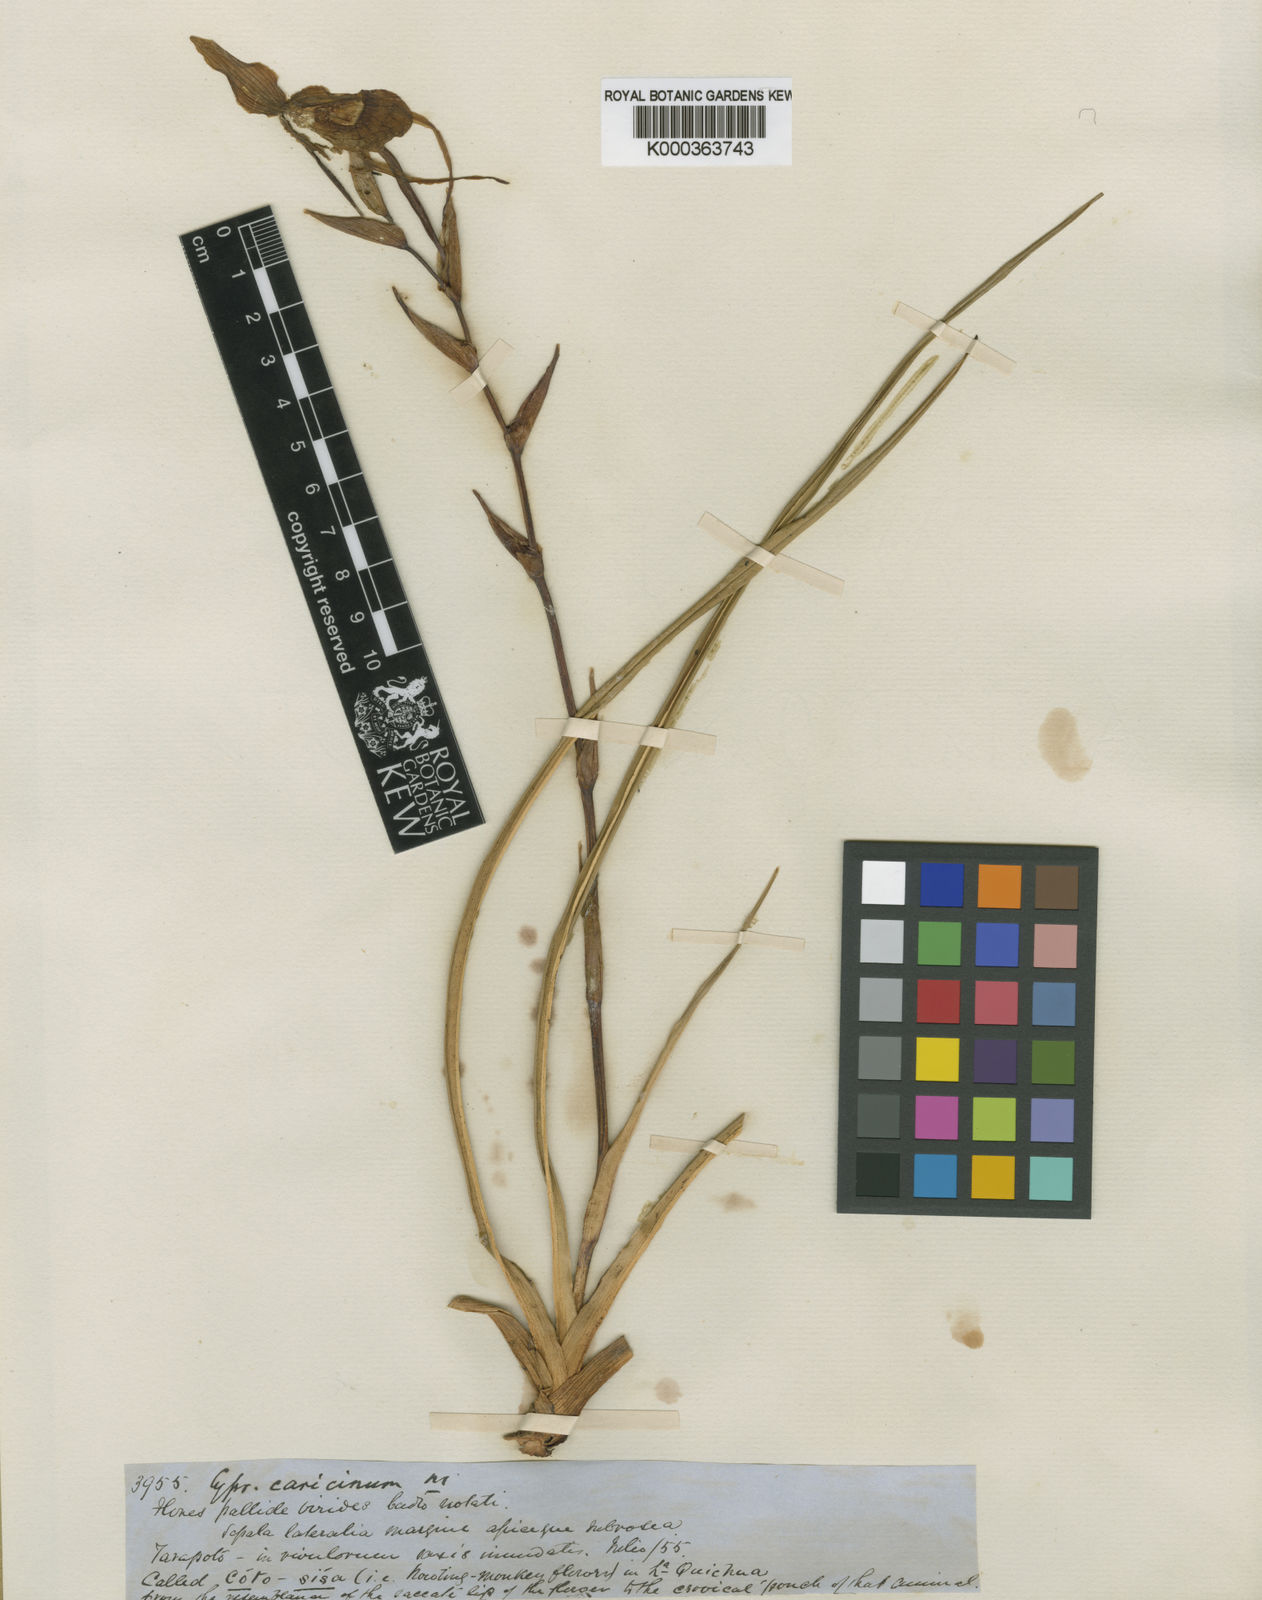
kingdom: Plantae
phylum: Tracheophyta
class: Liliopsida
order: Asparagales
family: Orchidaceae
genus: Phragmipedium
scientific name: Phragmipedium caricinum
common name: Reed grass-like phragmipedium
